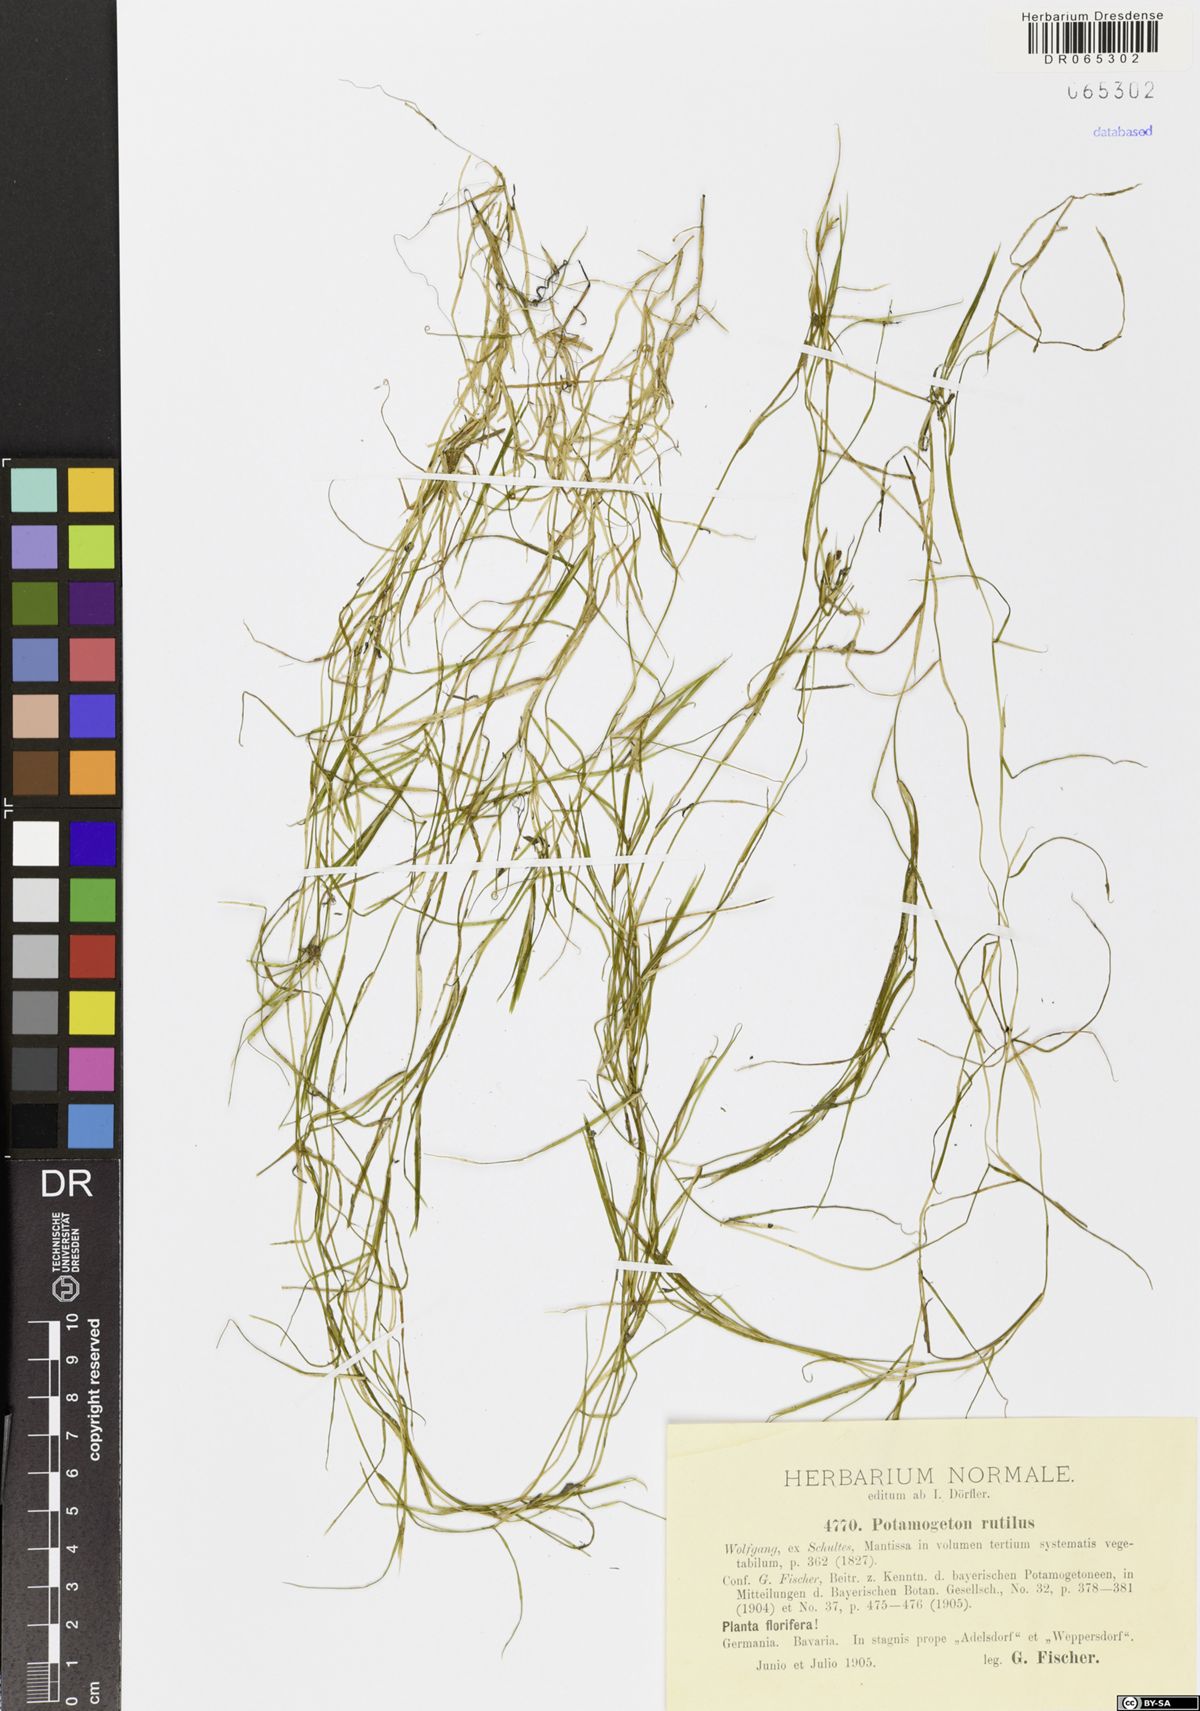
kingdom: Plantae
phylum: Tracheophyta
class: Liliopsida
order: Alismatales
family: Potamogetonaceae
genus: Potamogeton
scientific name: Potamogeton rutilus
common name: Shetland pondweed
